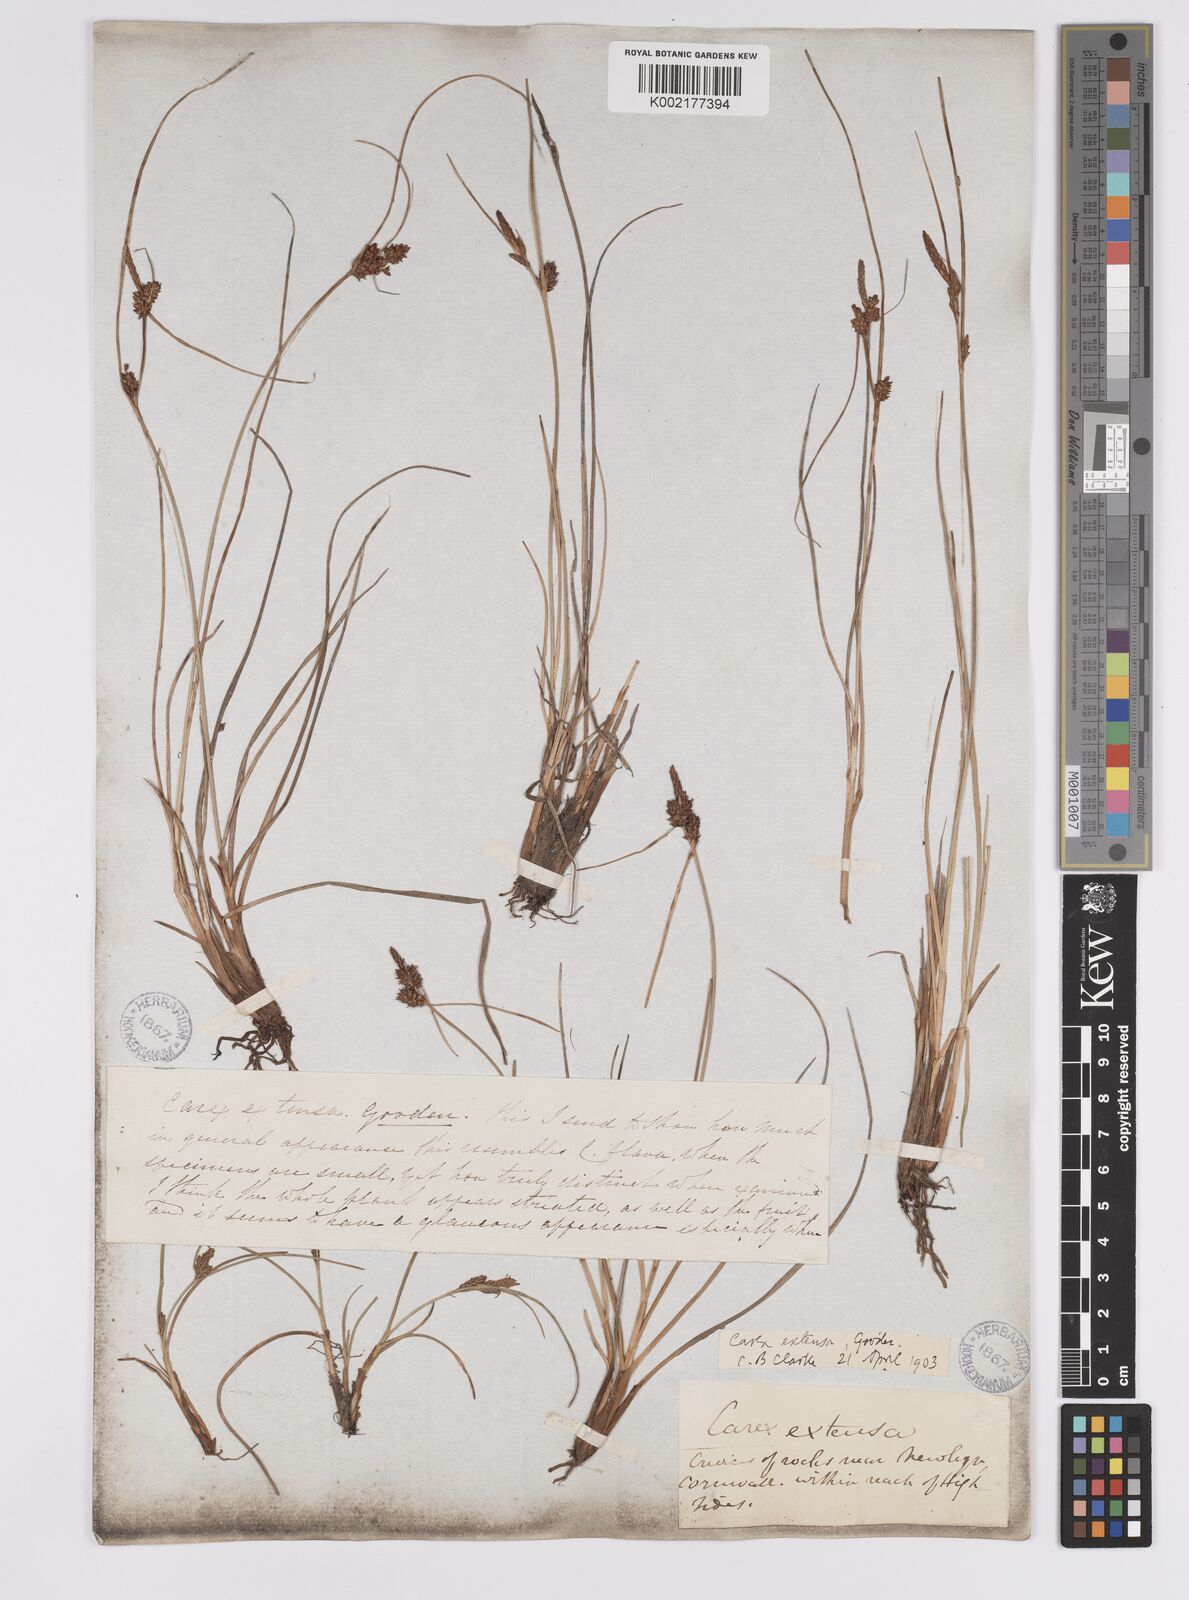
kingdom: Plantae
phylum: Tracheophyta
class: Liliopsida
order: Poales
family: Cyperaceae
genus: Carex
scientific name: Carex extensa
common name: Long-bracted sedge
